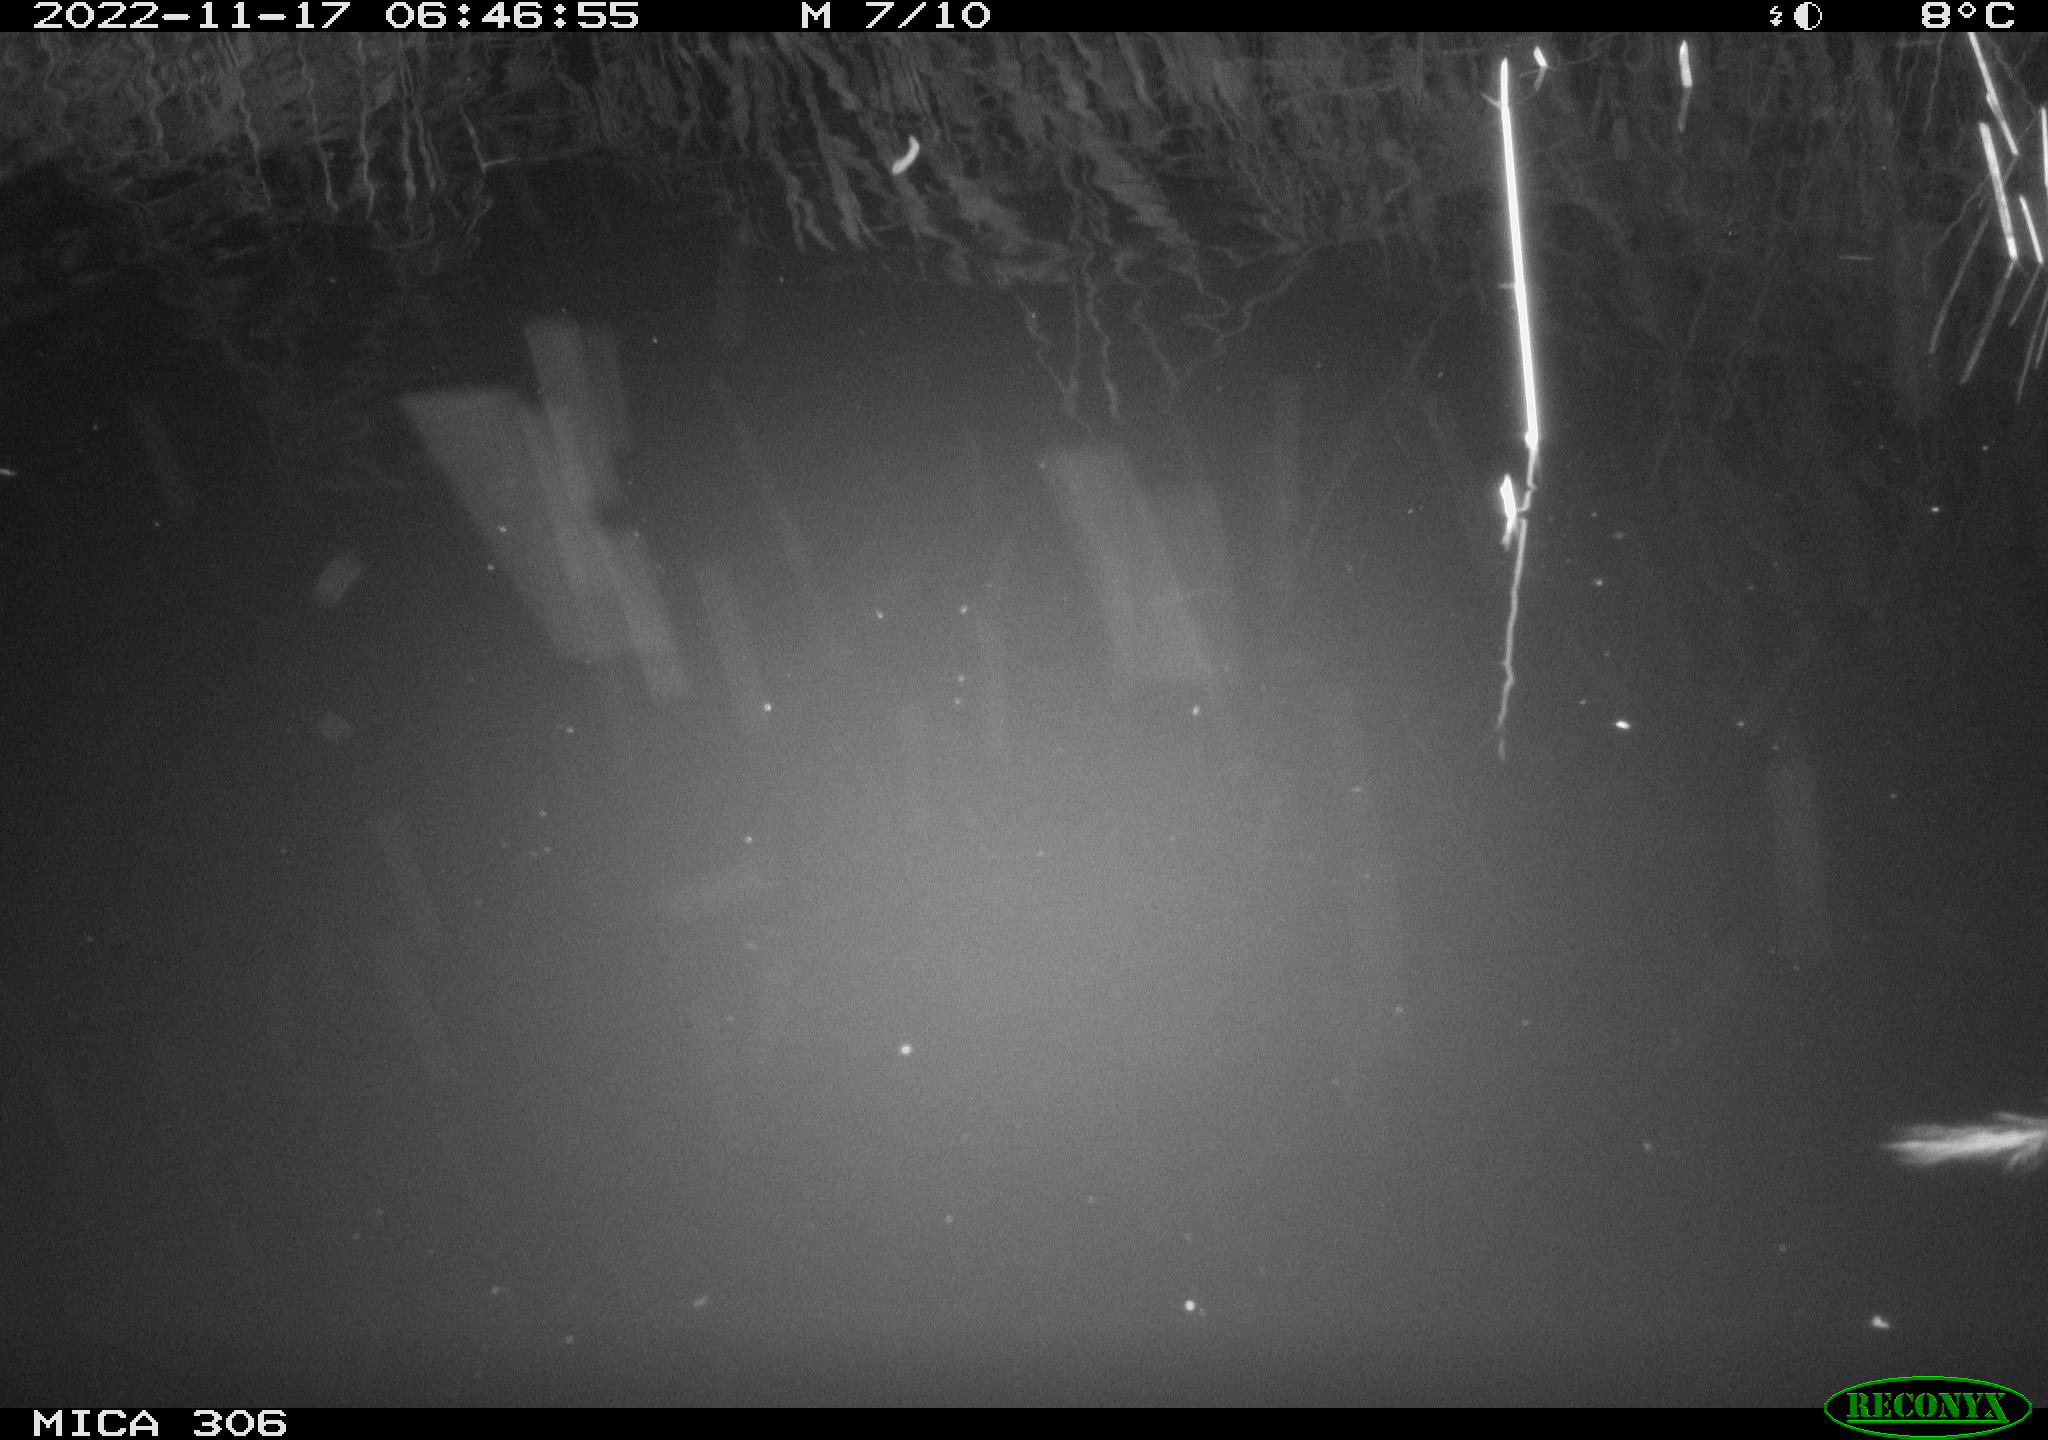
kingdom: Animalia
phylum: Chordata
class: Mammalia
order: Rodentia
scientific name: Rodentia
